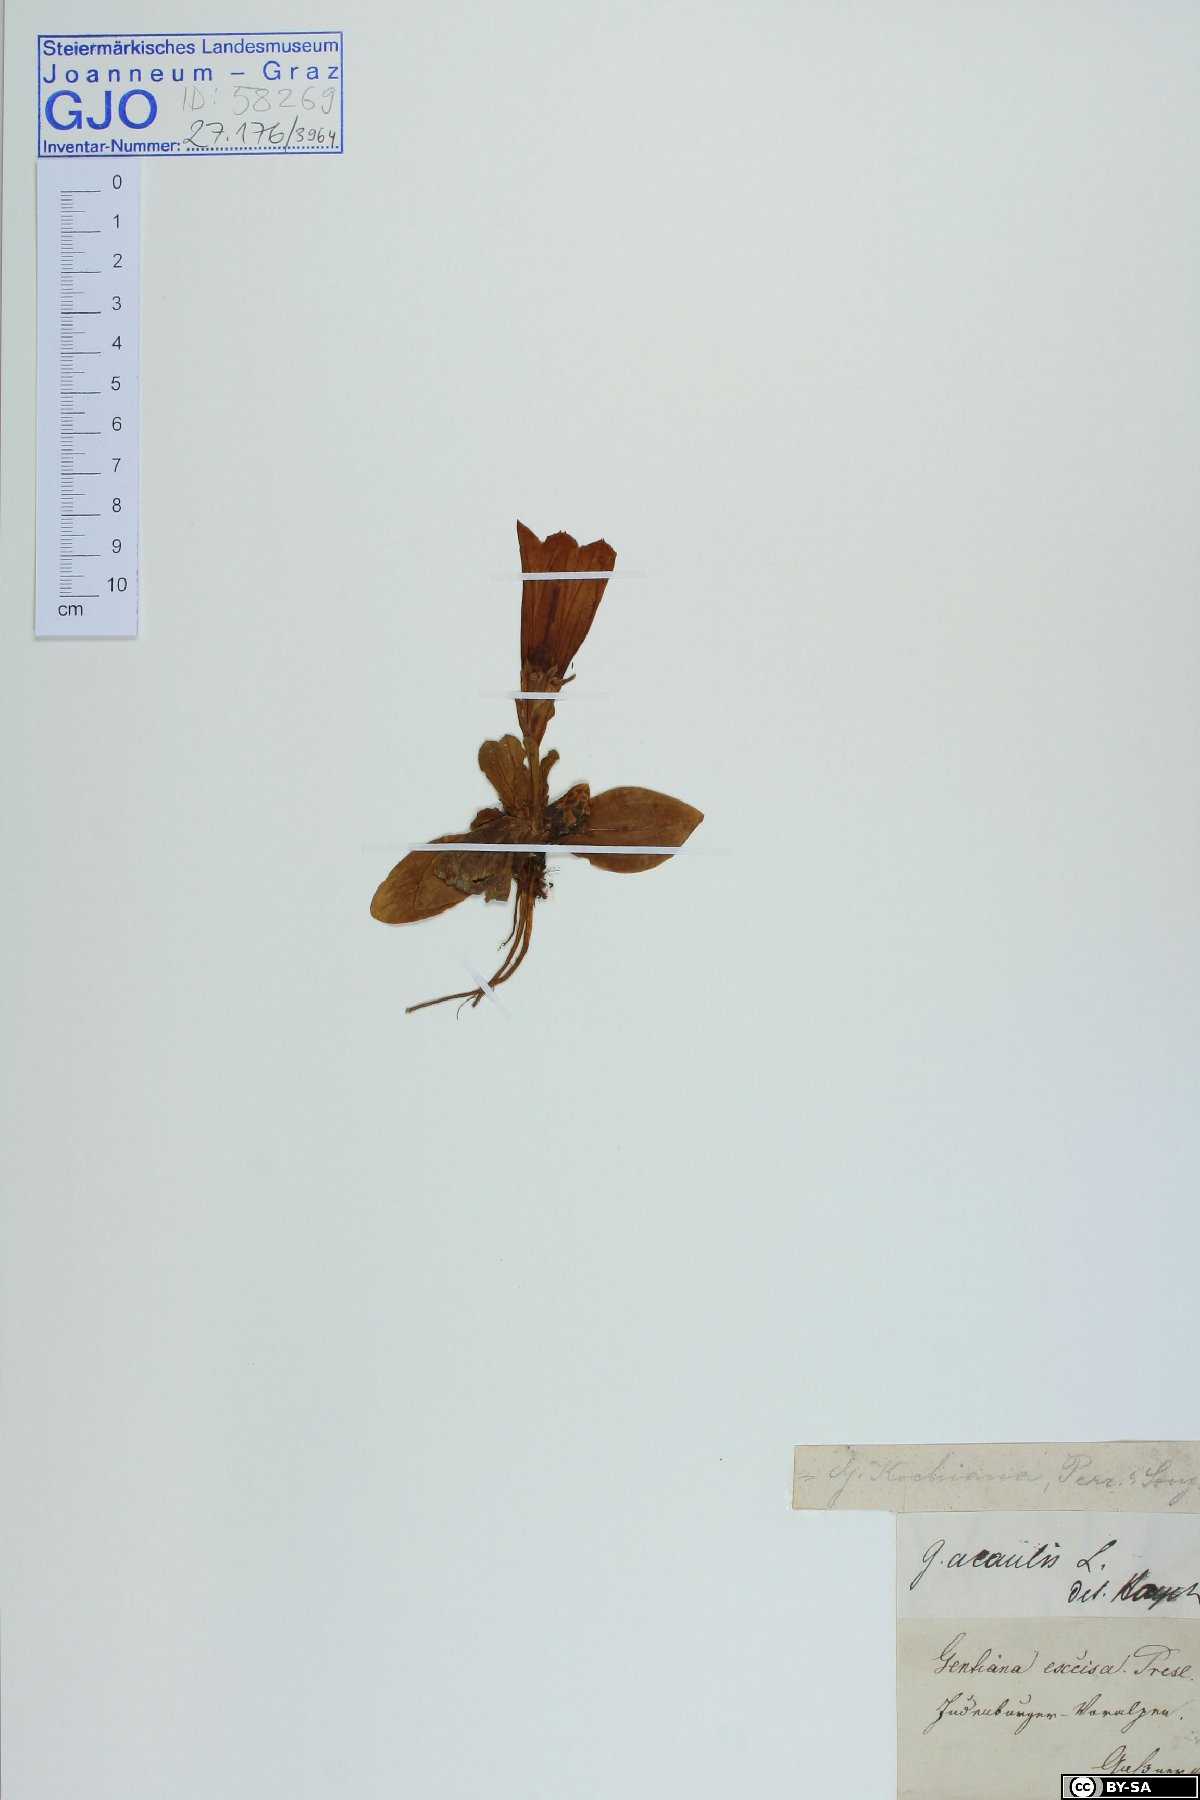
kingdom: Plantae
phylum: Tracheophyta
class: Magnoliopsida
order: Gentianales
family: Gentianaceae
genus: Gentiana
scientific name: Gentiana acaulis
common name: Trumpet gentian
